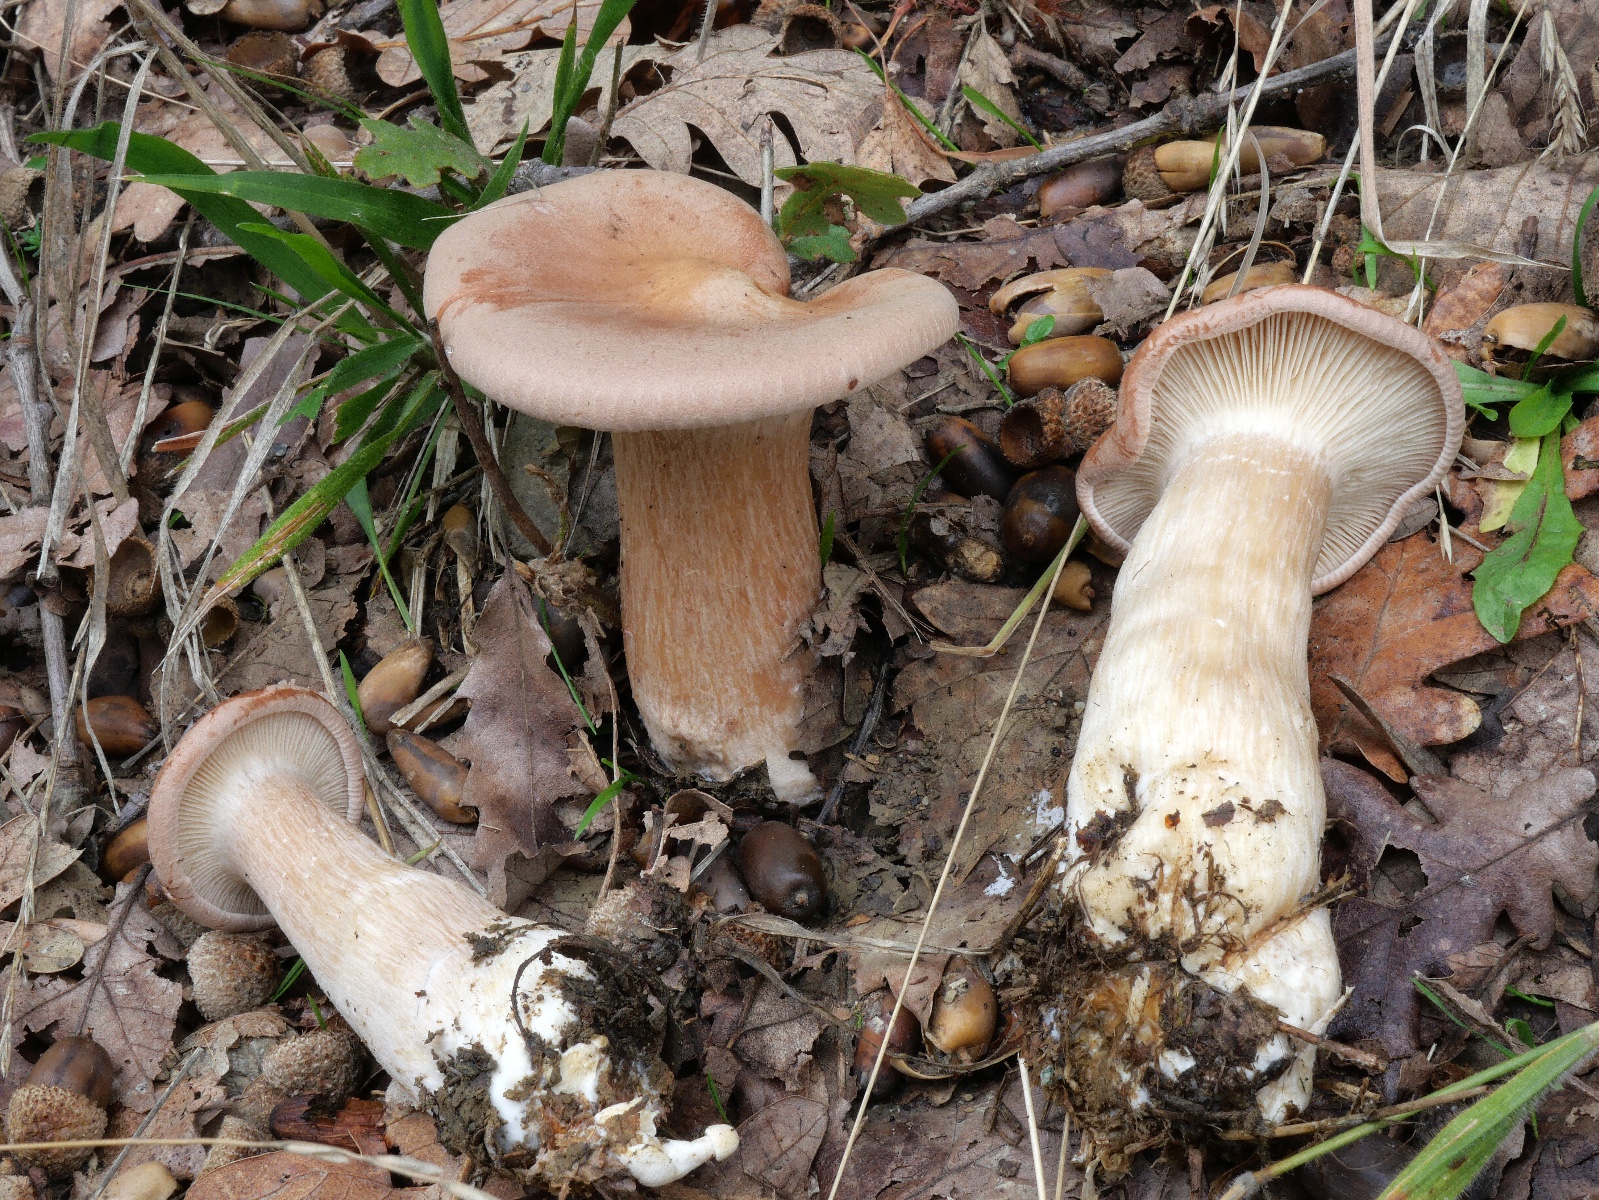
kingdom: Fungi
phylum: Basidiomycota
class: Agaricomycetes
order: Agaricales
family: Tricholomataceae
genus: Infundibulicybe
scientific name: Infundibulicybe geotropa
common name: stor tragthat
